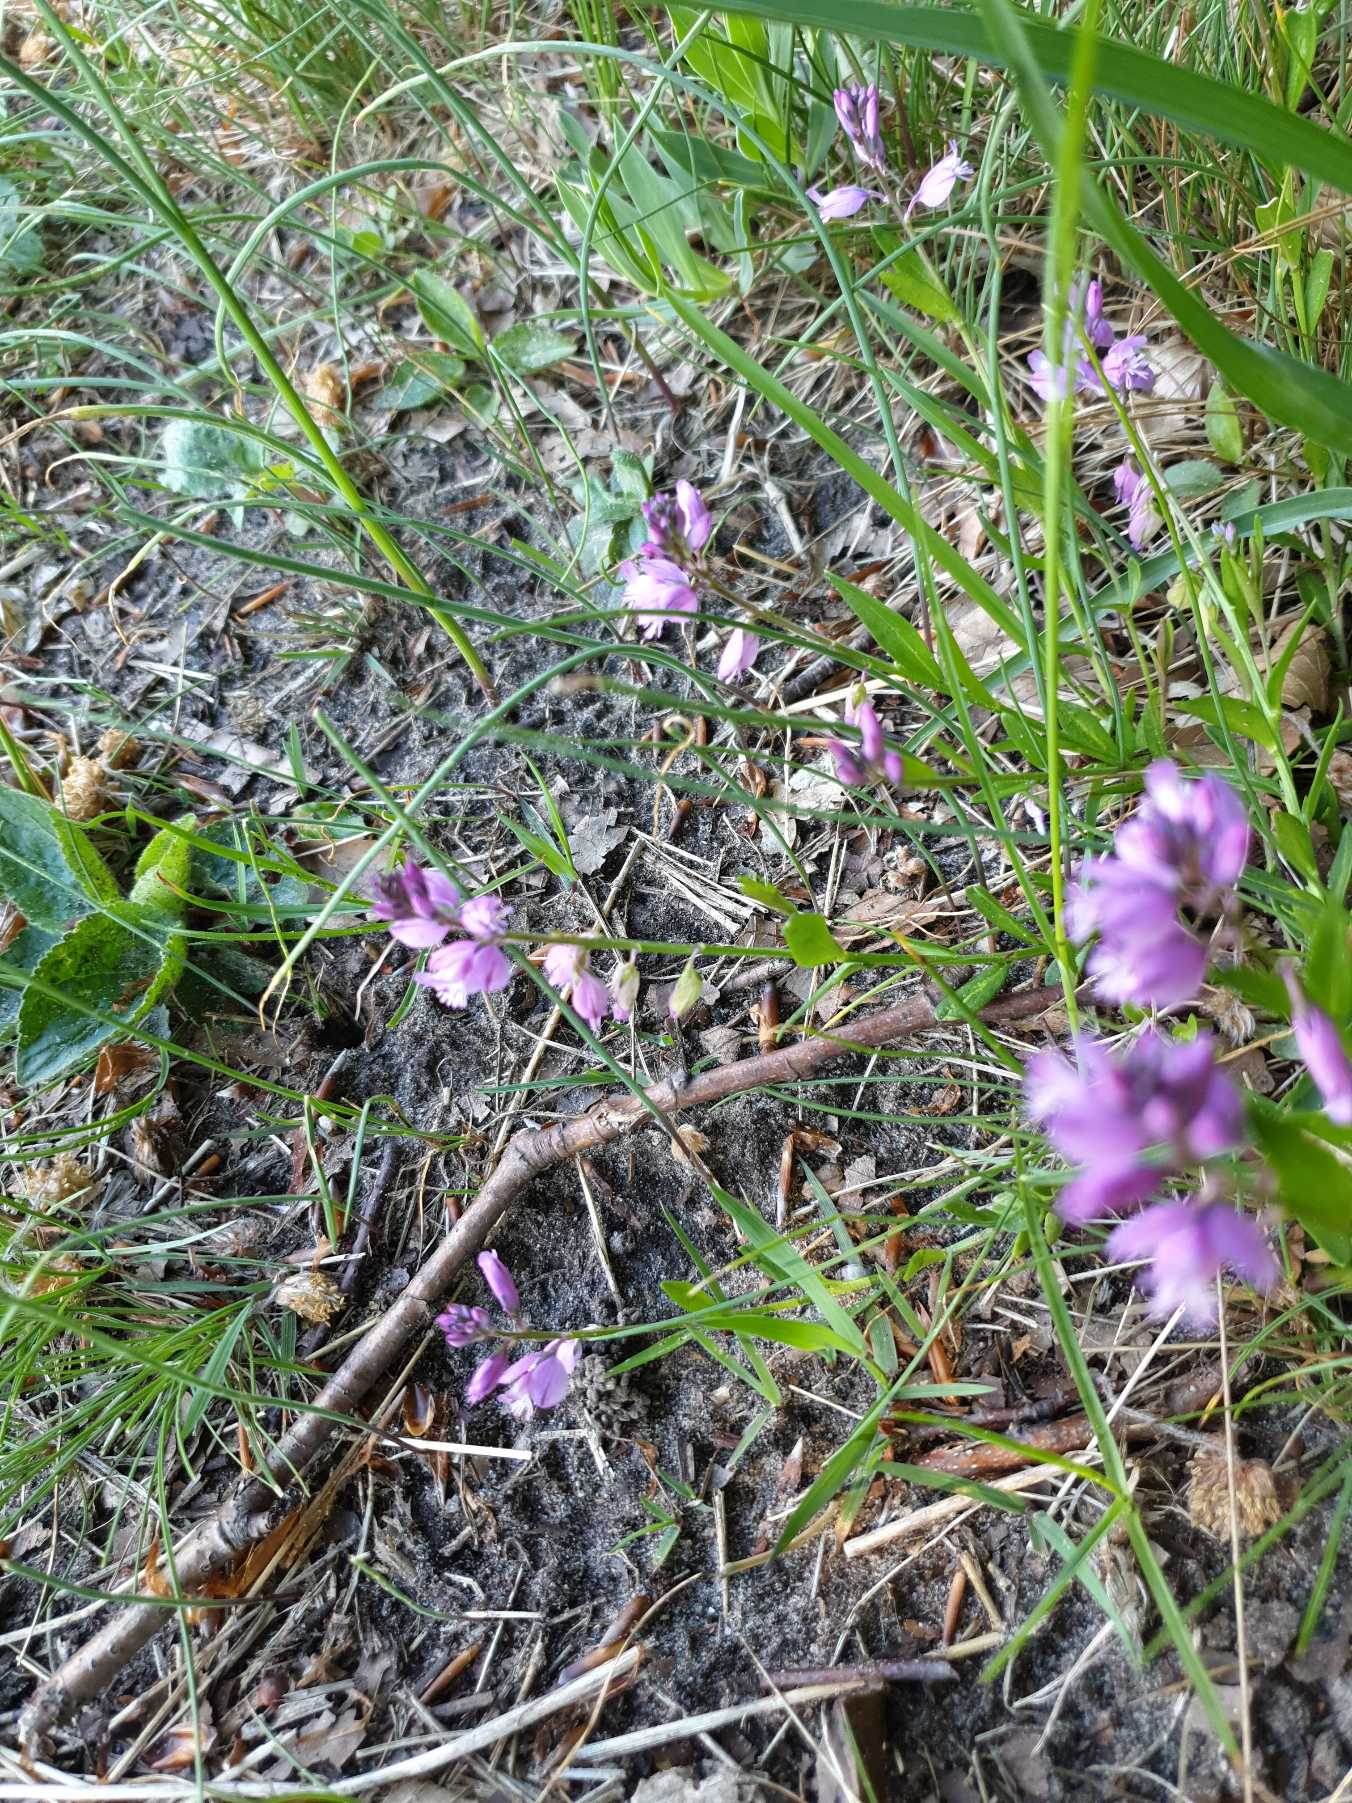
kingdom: Plantae
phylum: Tracheophyta
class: Magnoliopsida
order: Fabales
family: Polygalaceae
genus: Polygala
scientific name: Polygala vulgaris
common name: Almindelig mælkeurt
